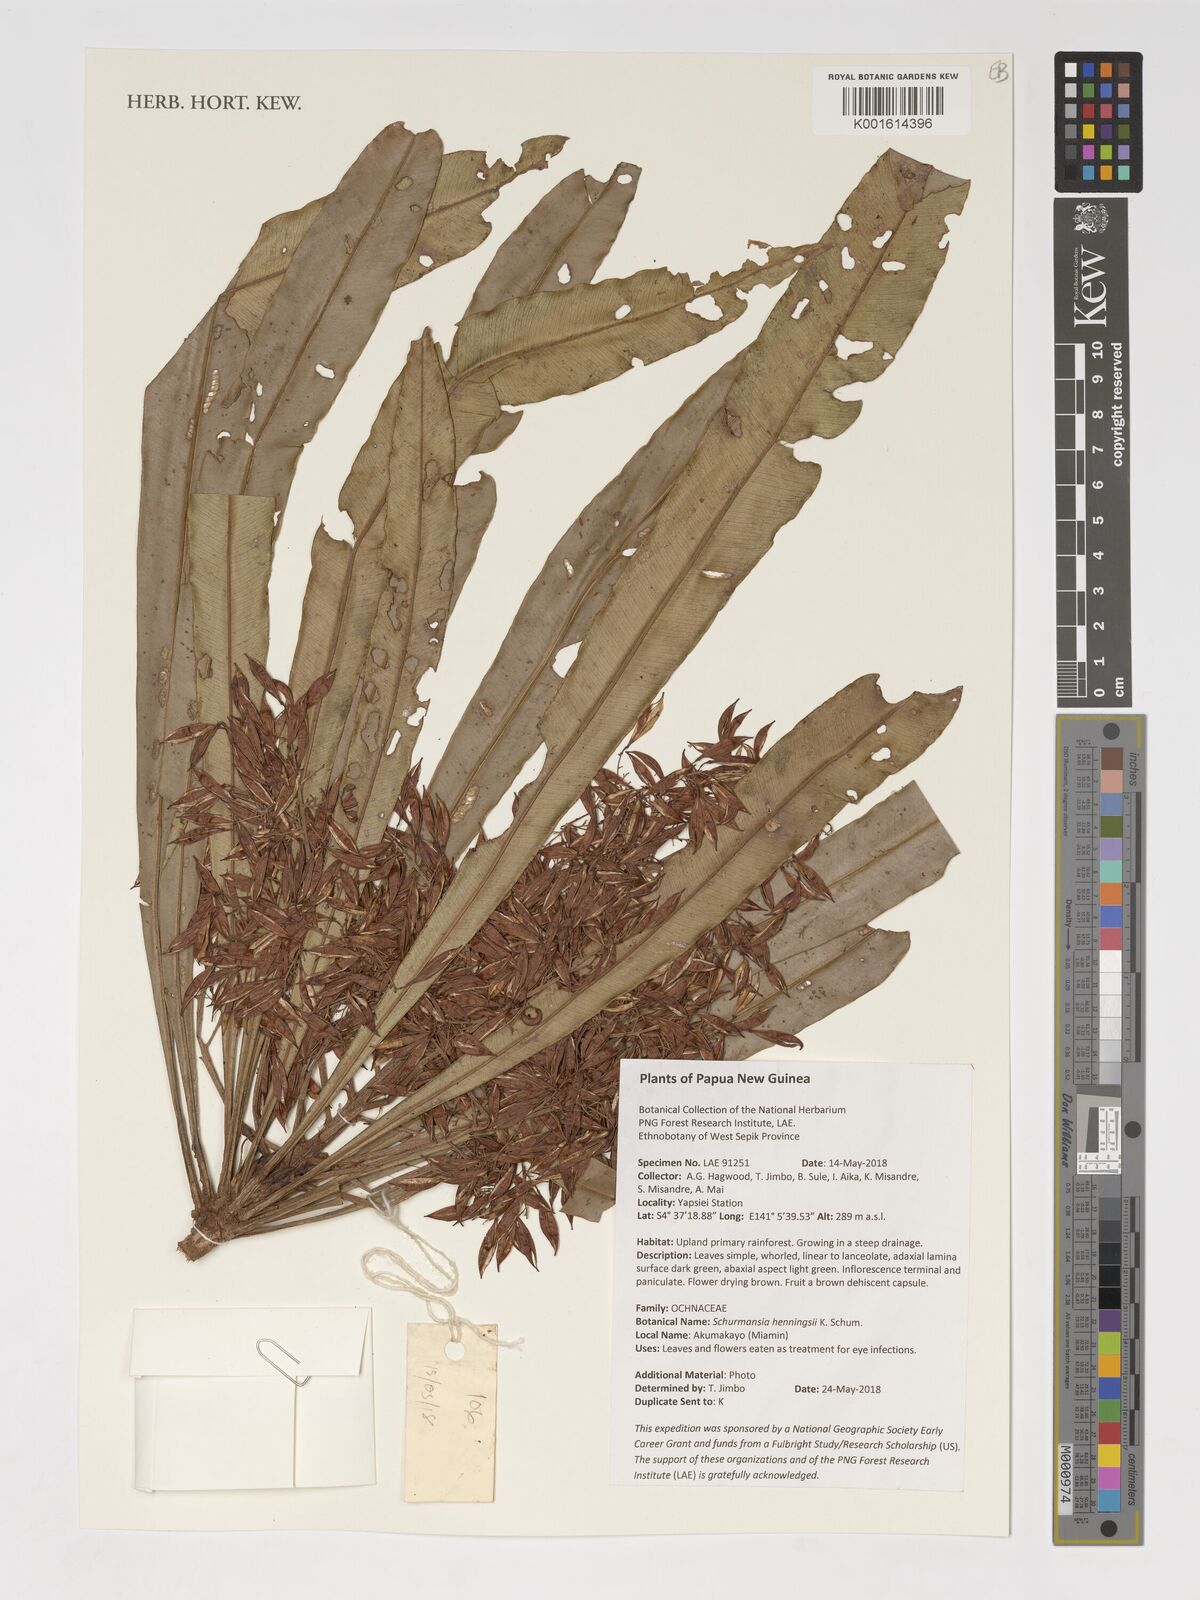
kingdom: Plantae
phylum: Tracheophyta
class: Magnoliopsida
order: Malpighiales
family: Ochnaceae
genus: Schuurmansia
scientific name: Schuurmansia henningsii
